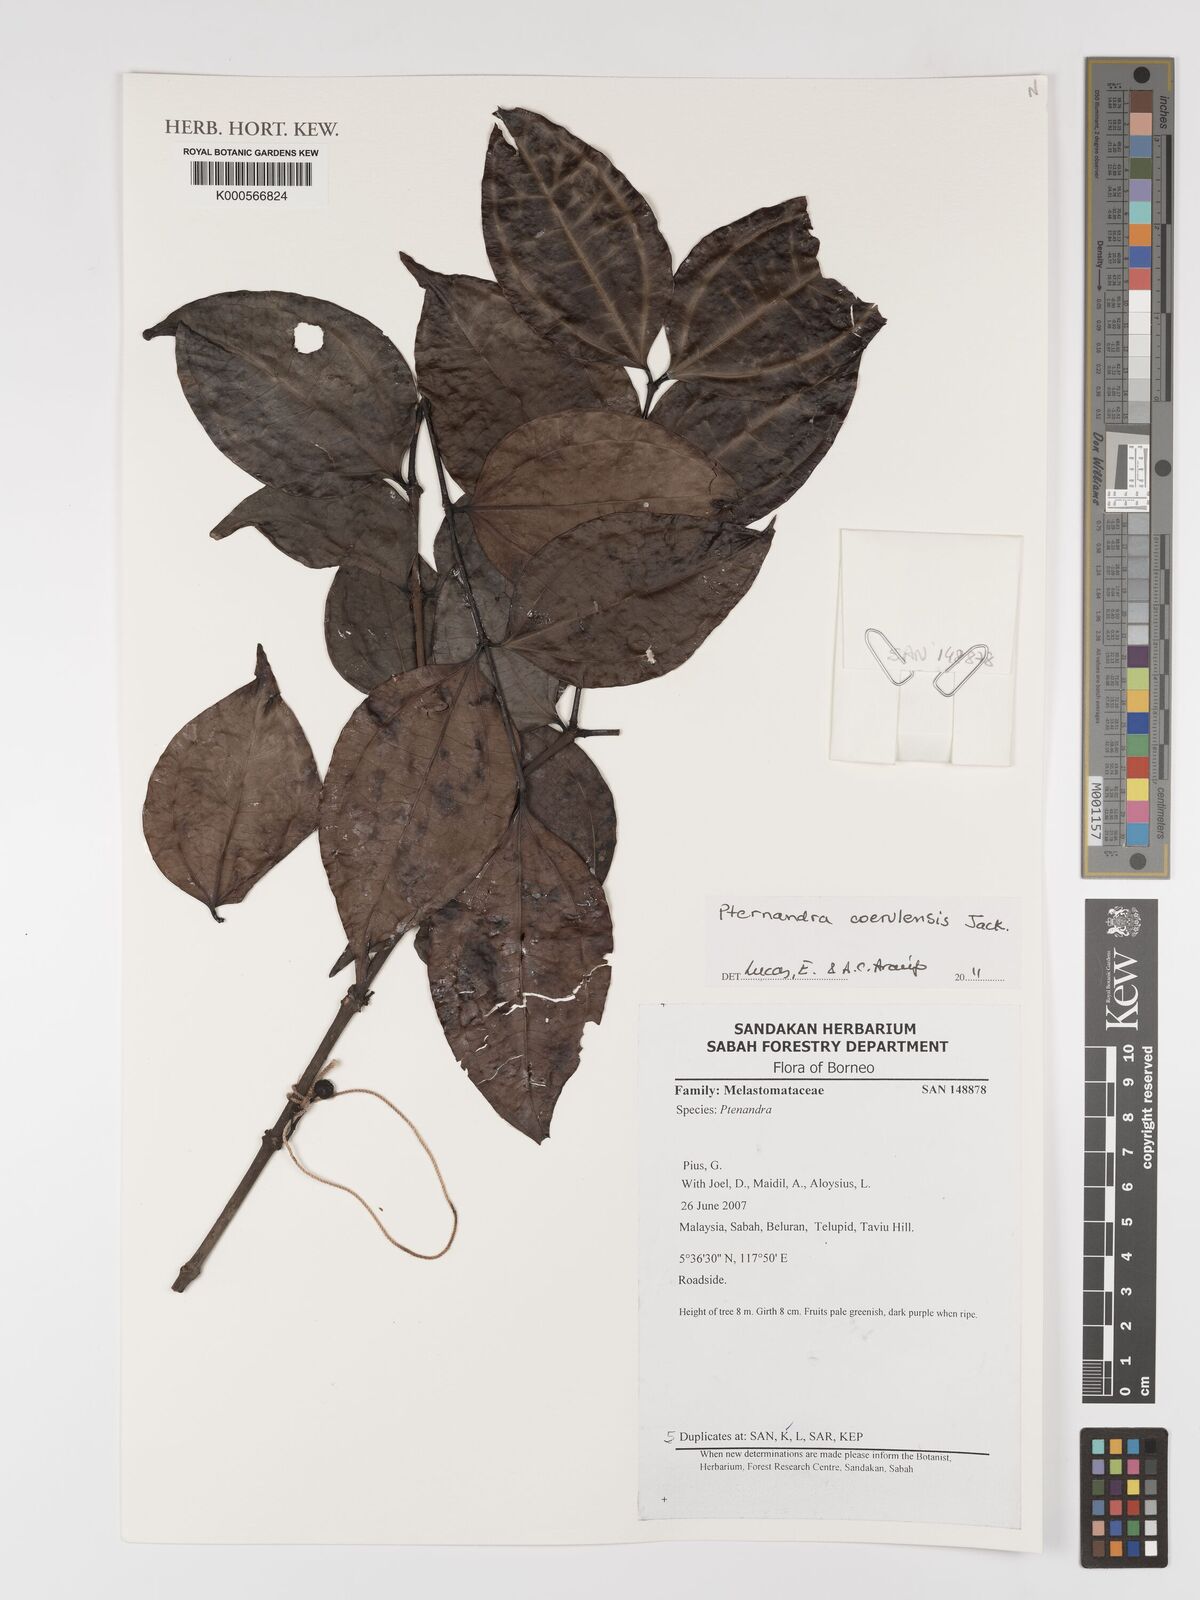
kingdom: Plantae
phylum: Tracheophyta
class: Magnoliopsida
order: Myrtales
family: Melastomataceae
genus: Pternandra
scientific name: Pternandra
